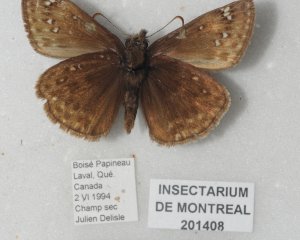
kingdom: Animalia
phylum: Arthropoda
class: Insecta
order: Lepidoptera
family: Hesperiidae
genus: Gesta
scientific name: Gesta
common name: Juvenal's Duskywing
